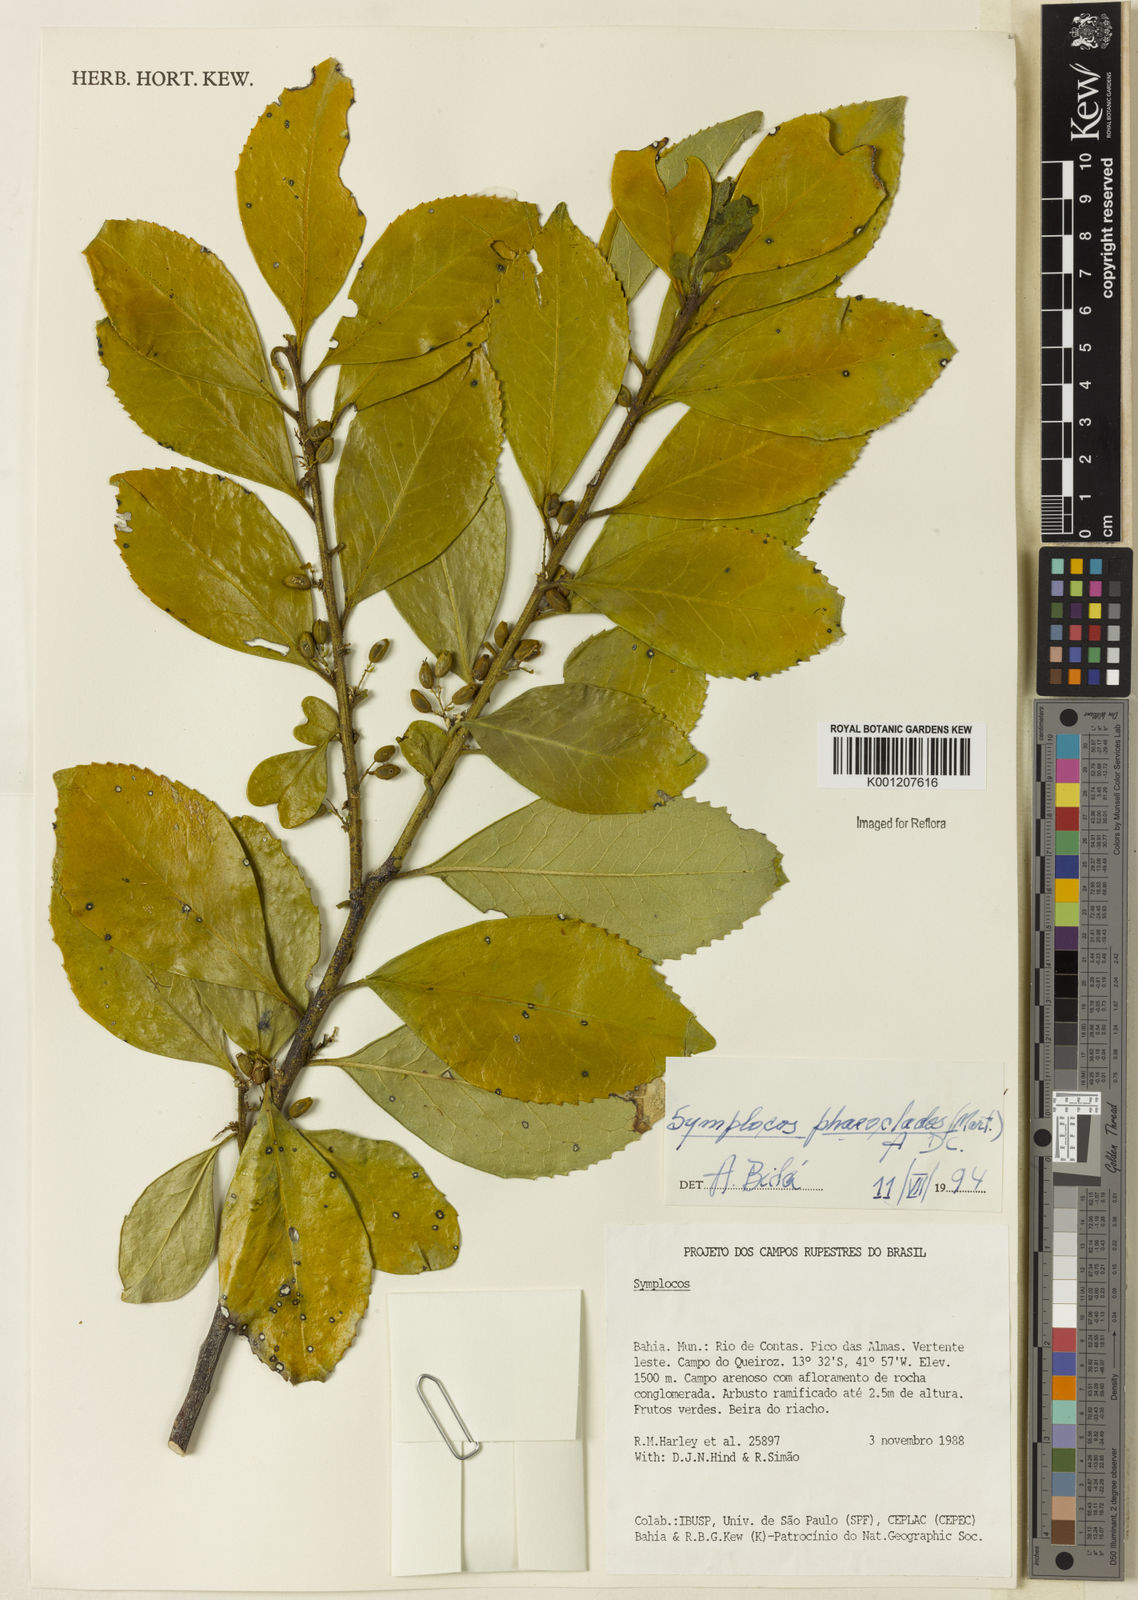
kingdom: Plantae
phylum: Tracheophyta
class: Magnoliopsida
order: Ericales
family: Symplocaceae
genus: Symplocos
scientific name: Symplocos arbutifolia
